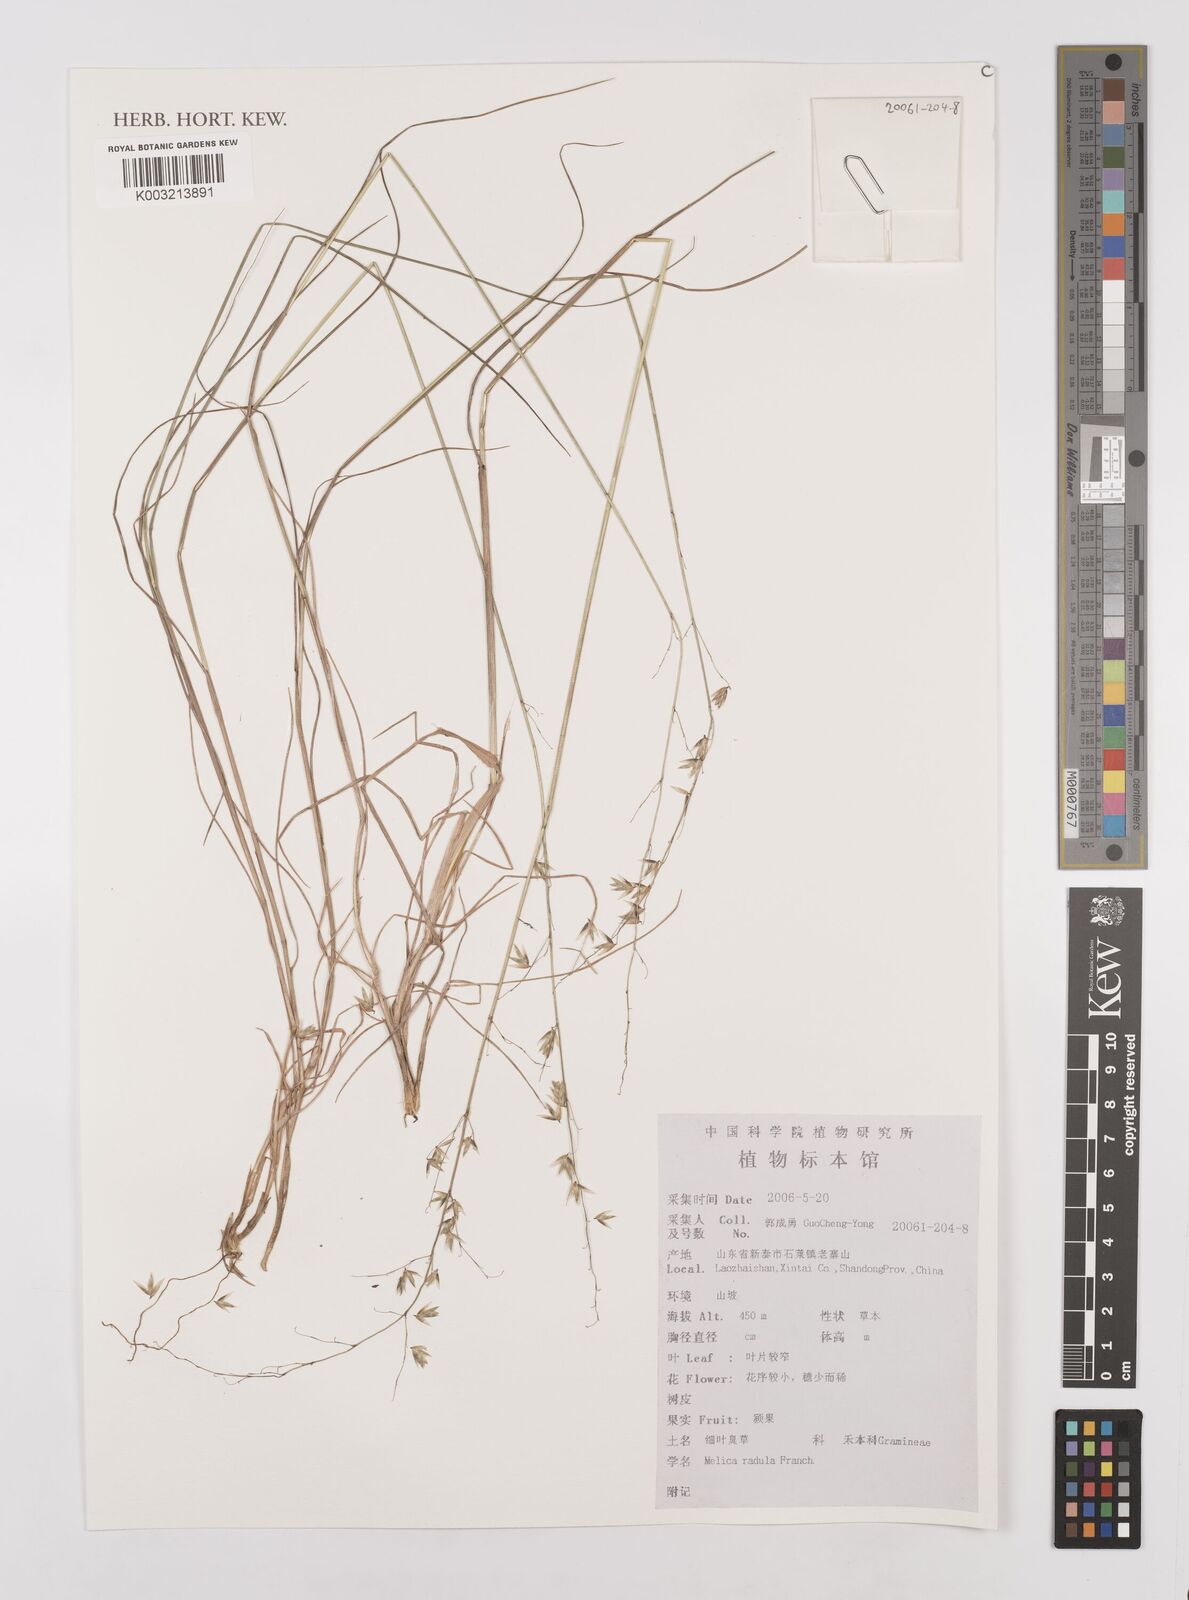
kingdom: Plantae
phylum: Tracheophyta
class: Liliopsida
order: Poales
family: Poaceae
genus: Melica
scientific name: Melica radula
